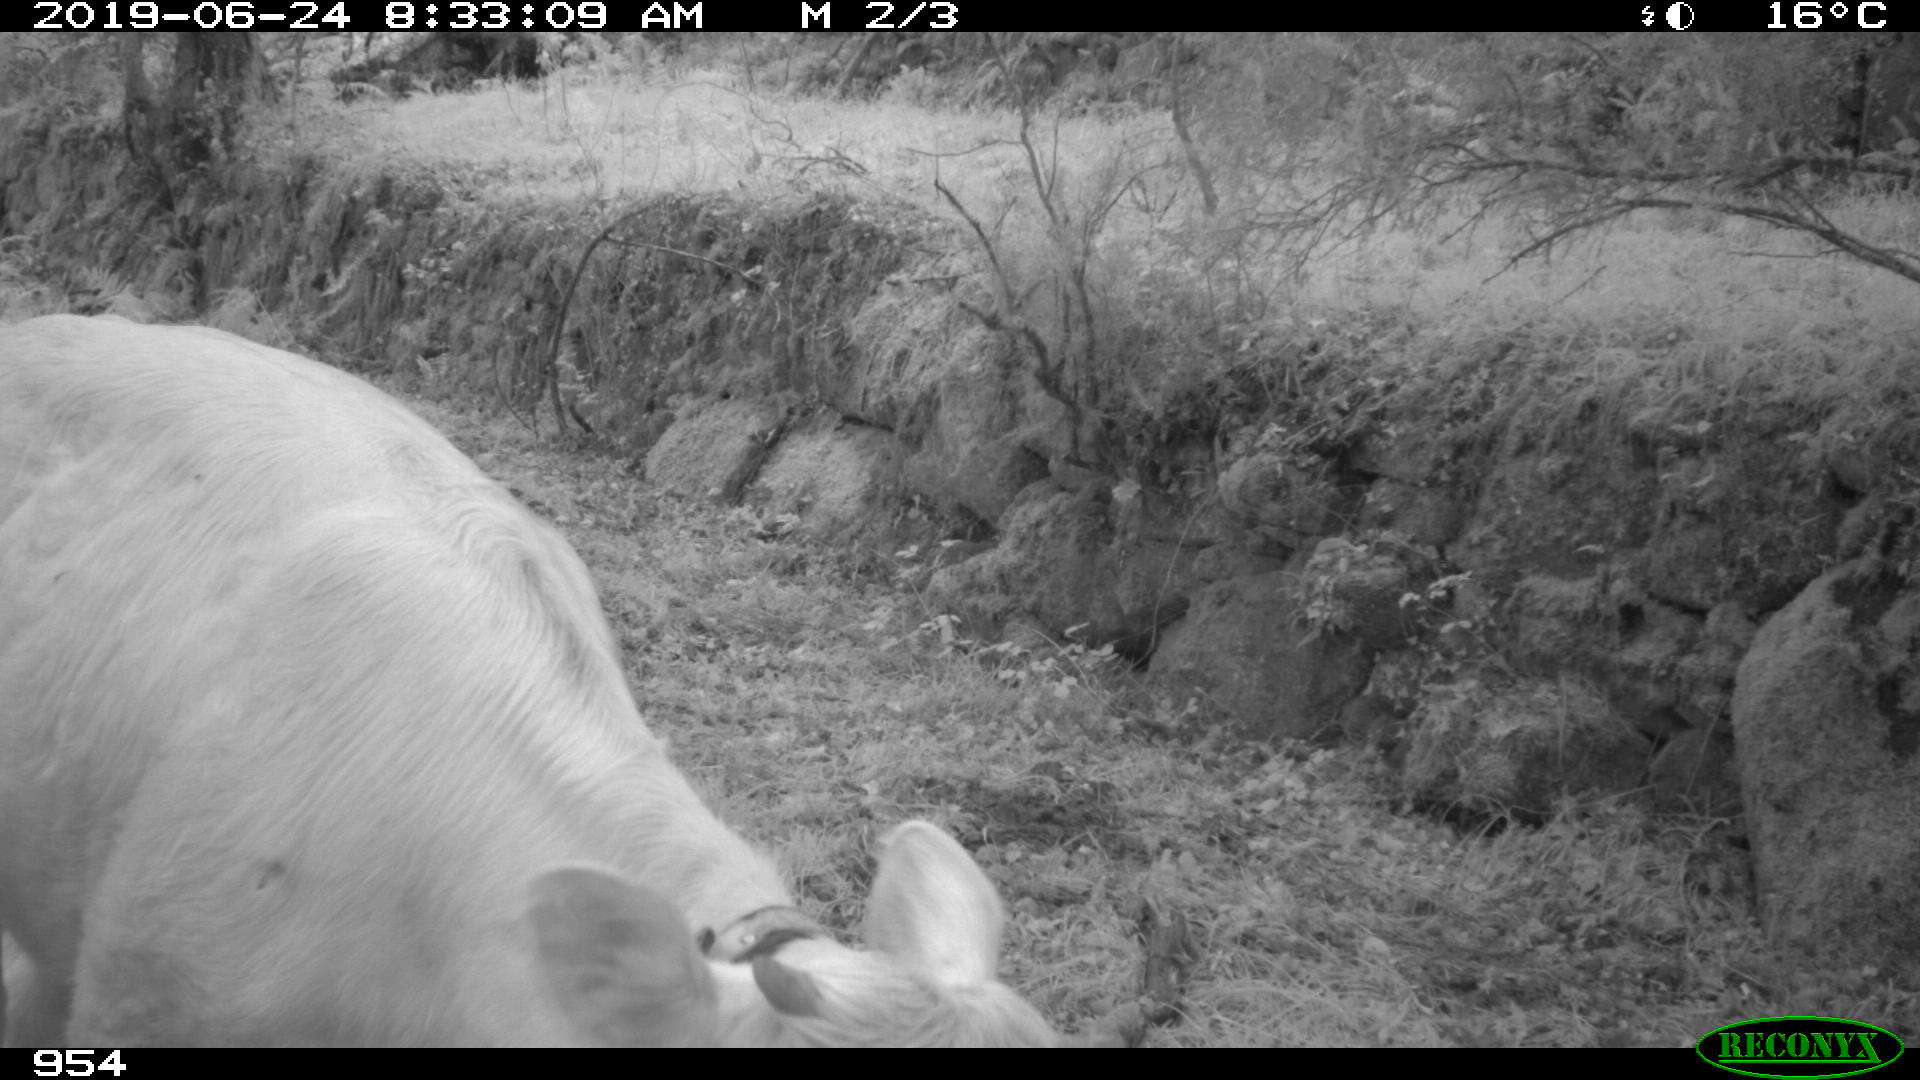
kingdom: Animalia
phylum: Chordata
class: Mammalia
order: Artiodactyla
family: Bovidae
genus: Bos
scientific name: Bos taurus
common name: Domesticated cattle
